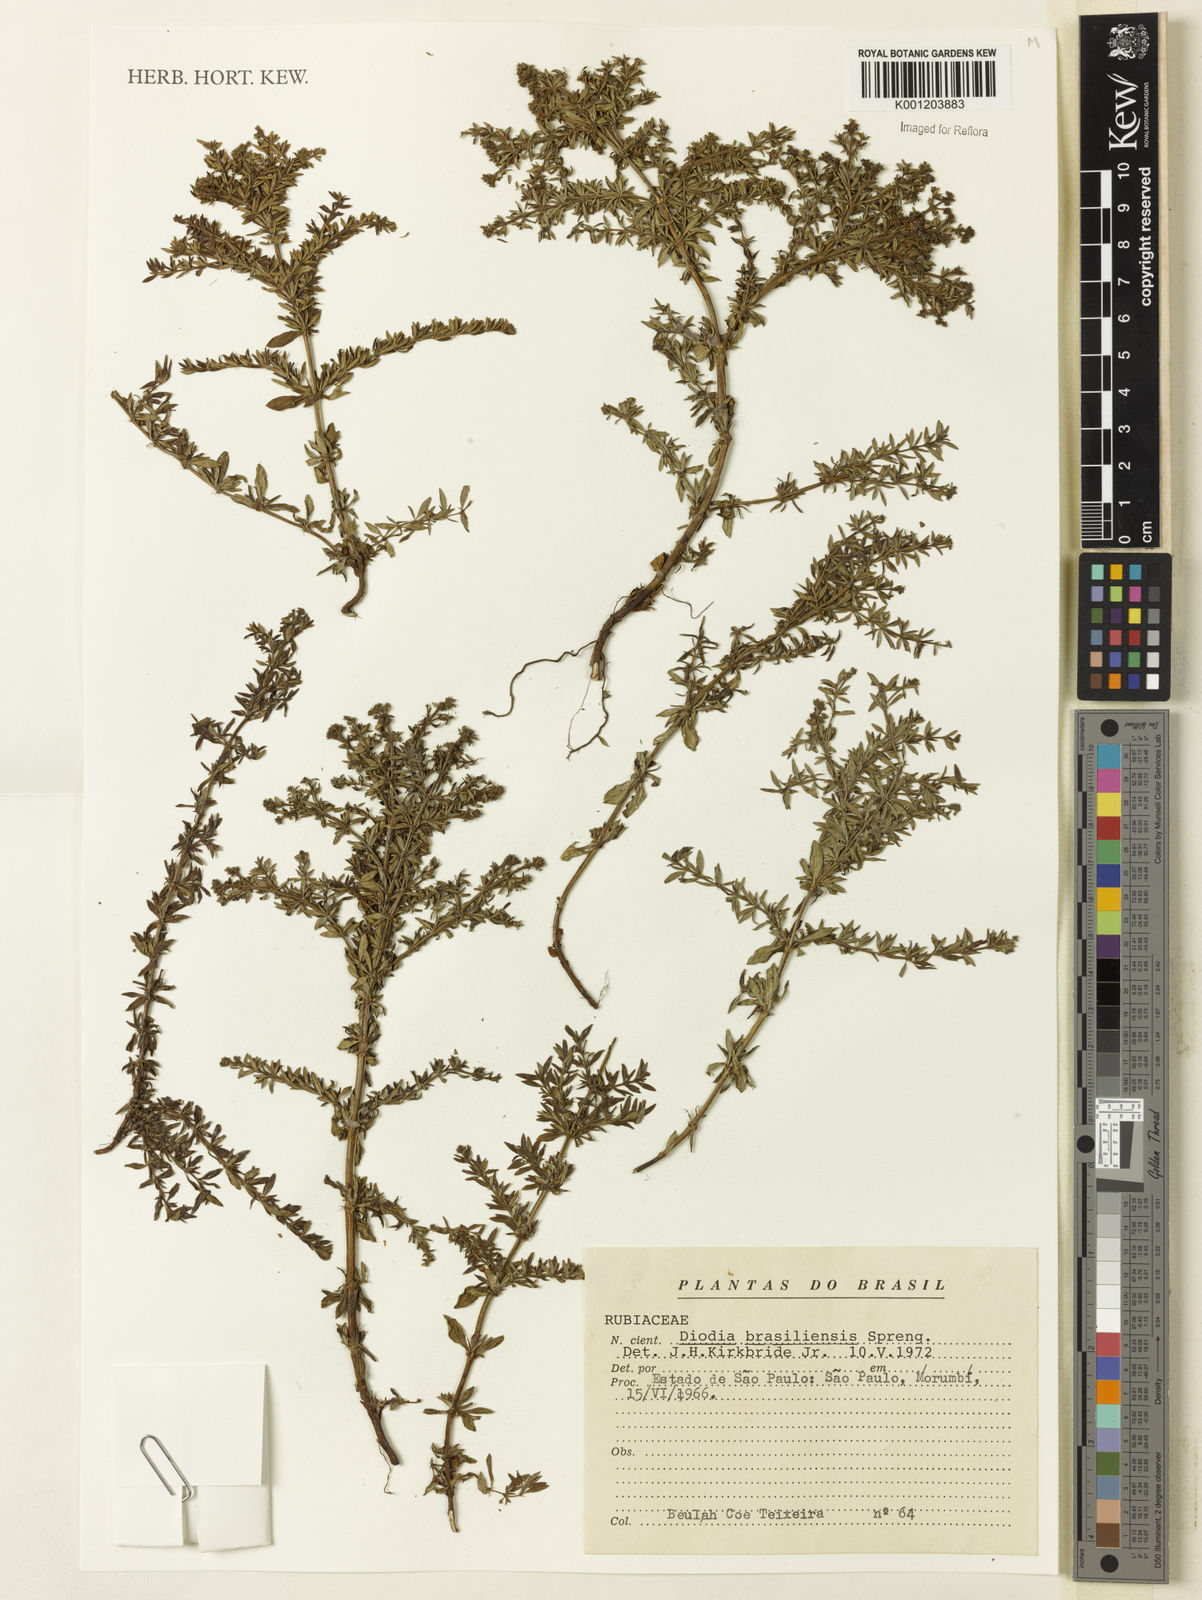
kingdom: Plantae
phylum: Tracheophyta
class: Magnoliopsida
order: Gentianales
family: Rubiaceae
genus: Galianthe
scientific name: Galianthe brasiliensis
